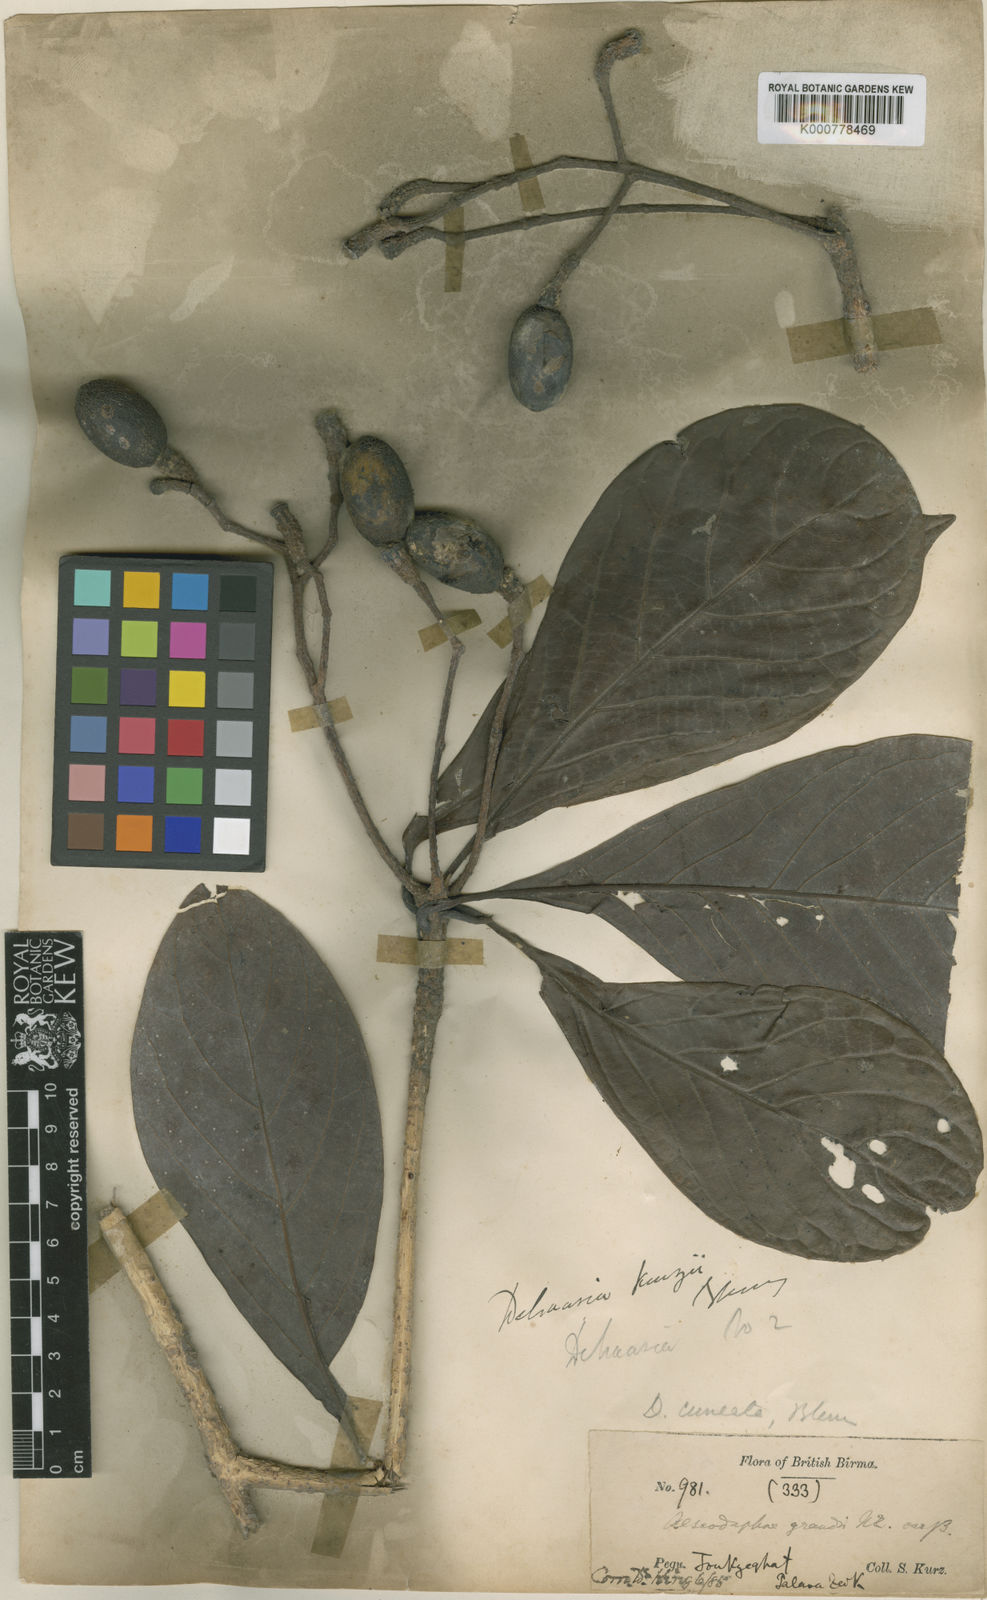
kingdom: Plantae
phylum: Tracheophyta
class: Magnoliopsida
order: Laurales
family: Lauraceae
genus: Dehaasia
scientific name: Dehaasia kurzii
